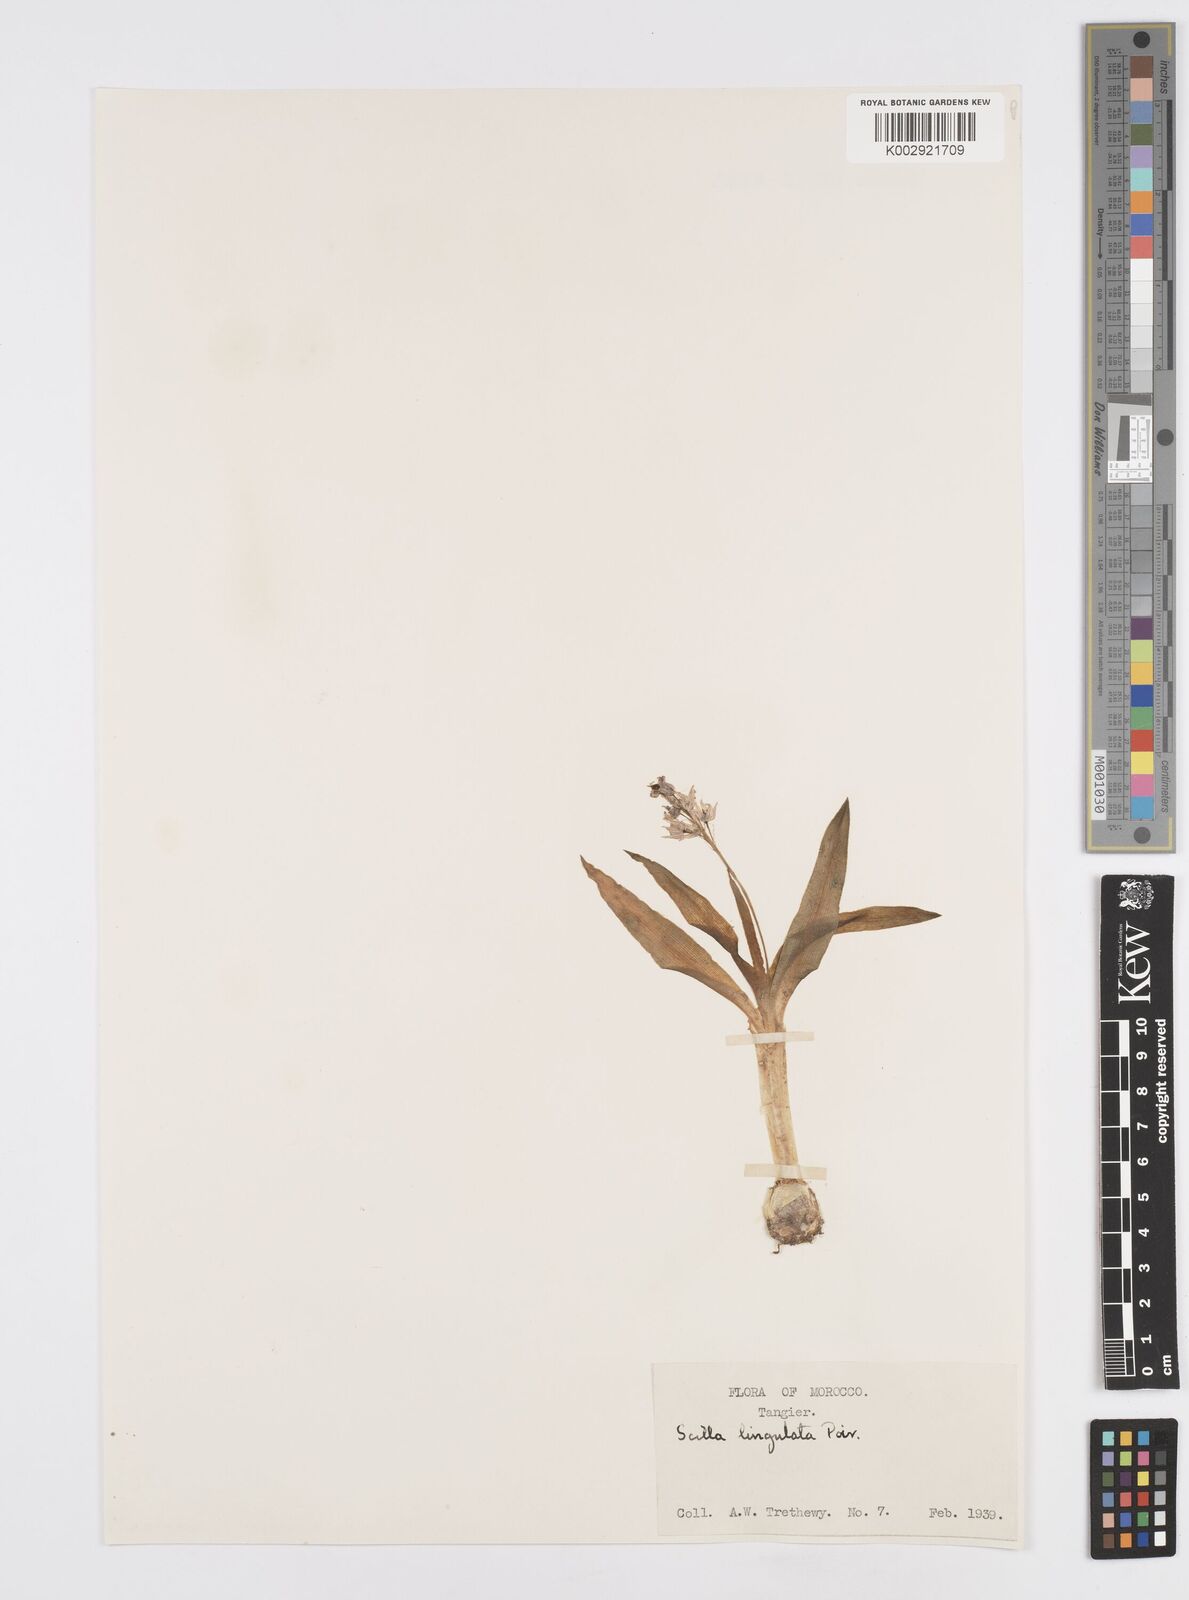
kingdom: Plantae
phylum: Tracheophyta
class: Liliopsida
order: Asparagales
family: Asparagaceae
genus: Hyacinthoides
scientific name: Hyacinthoides lingulata
